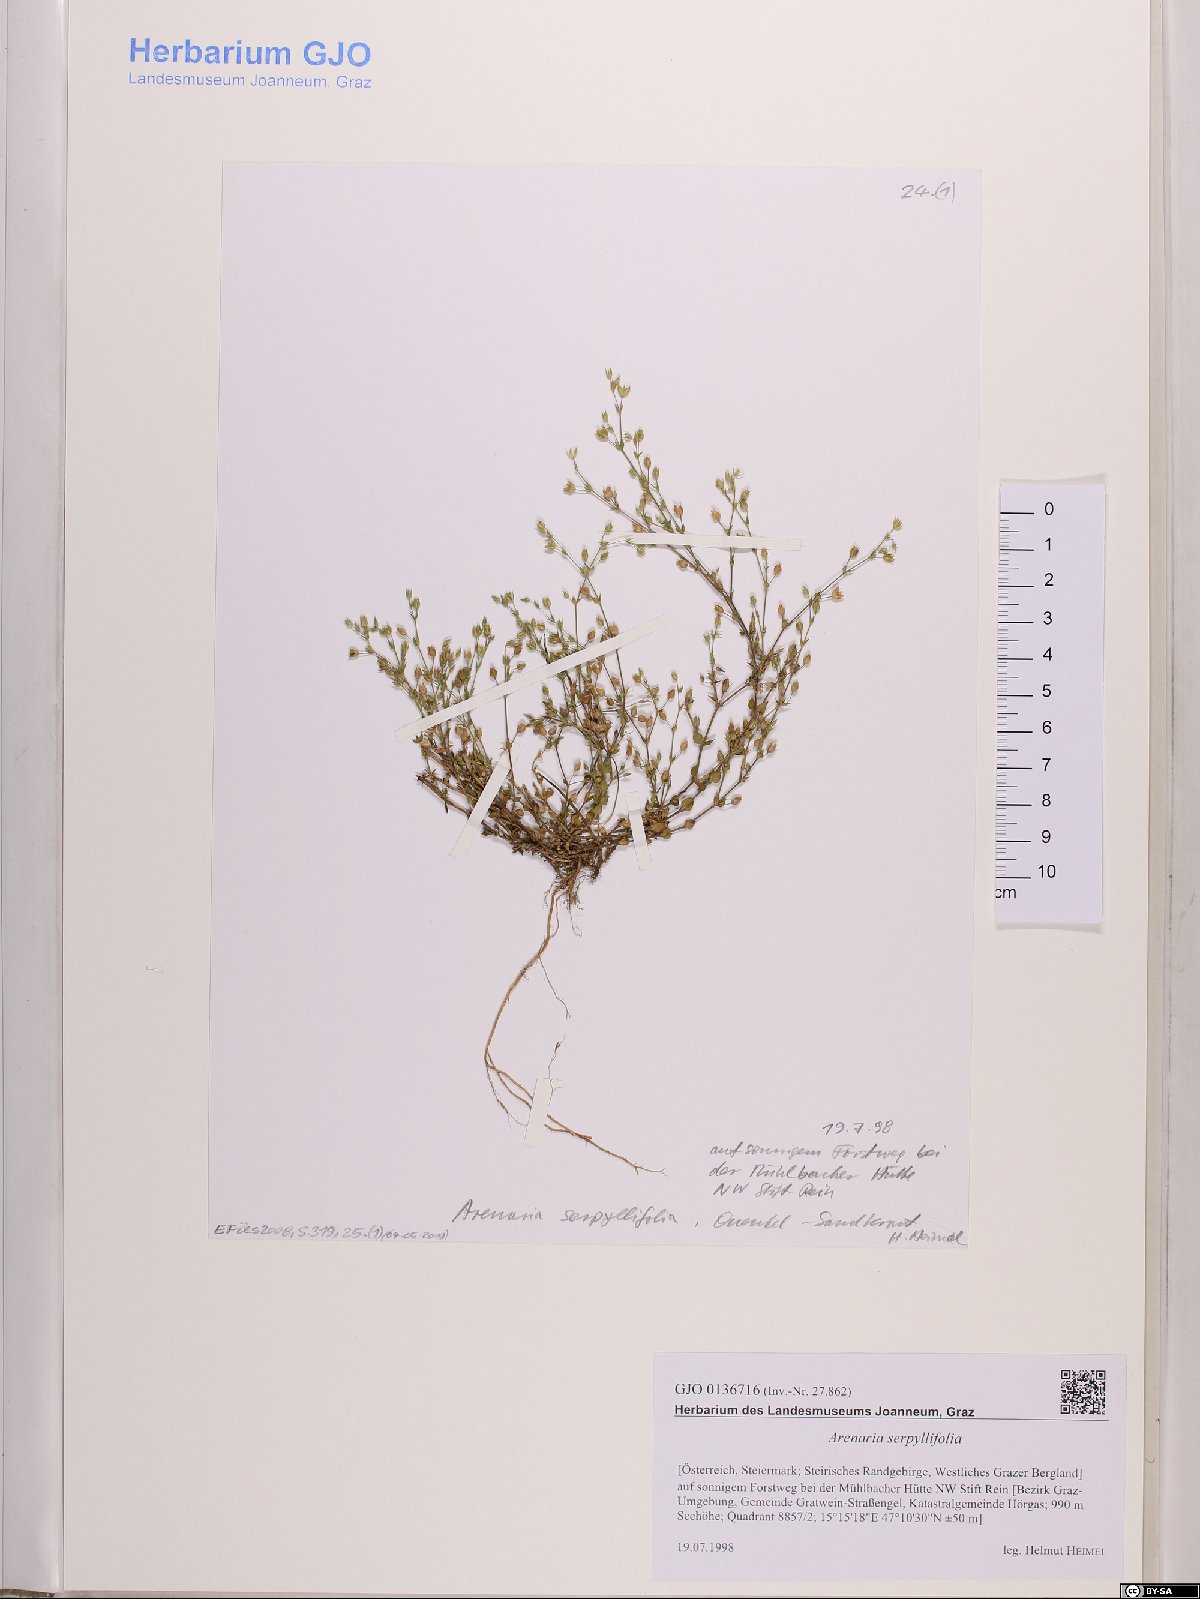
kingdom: Plantae
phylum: Tracheophyta
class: Magnoliopsida
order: Caryophyllales
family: Caryophyllaceae
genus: Arenaria
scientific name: Arenaria serpyllifolia
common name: Thyme-leaved sandwort
